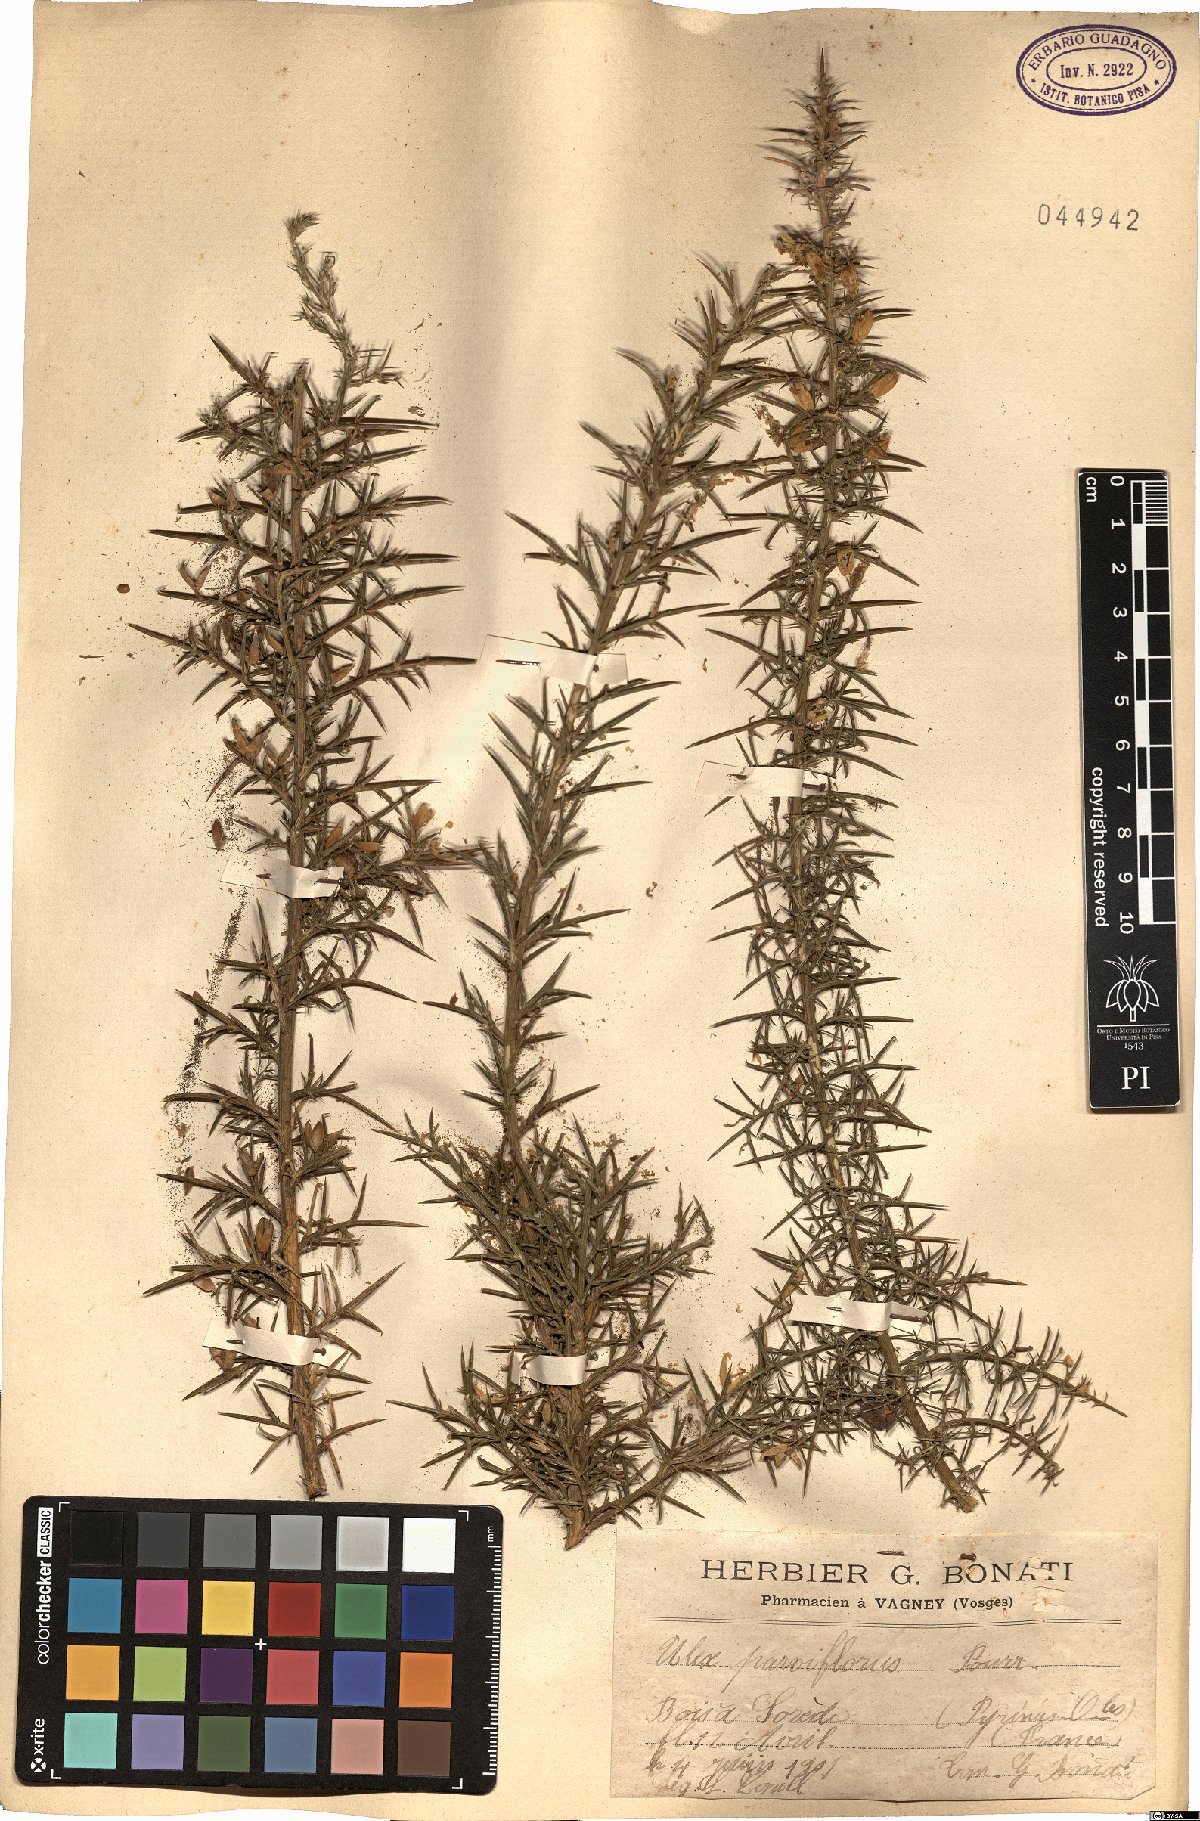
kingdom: Plantae
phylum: Tracheophyta
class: Magnoliopsida
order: Fabales
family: Fabaceae
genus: Ulex
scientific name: Ulex parviflorus
